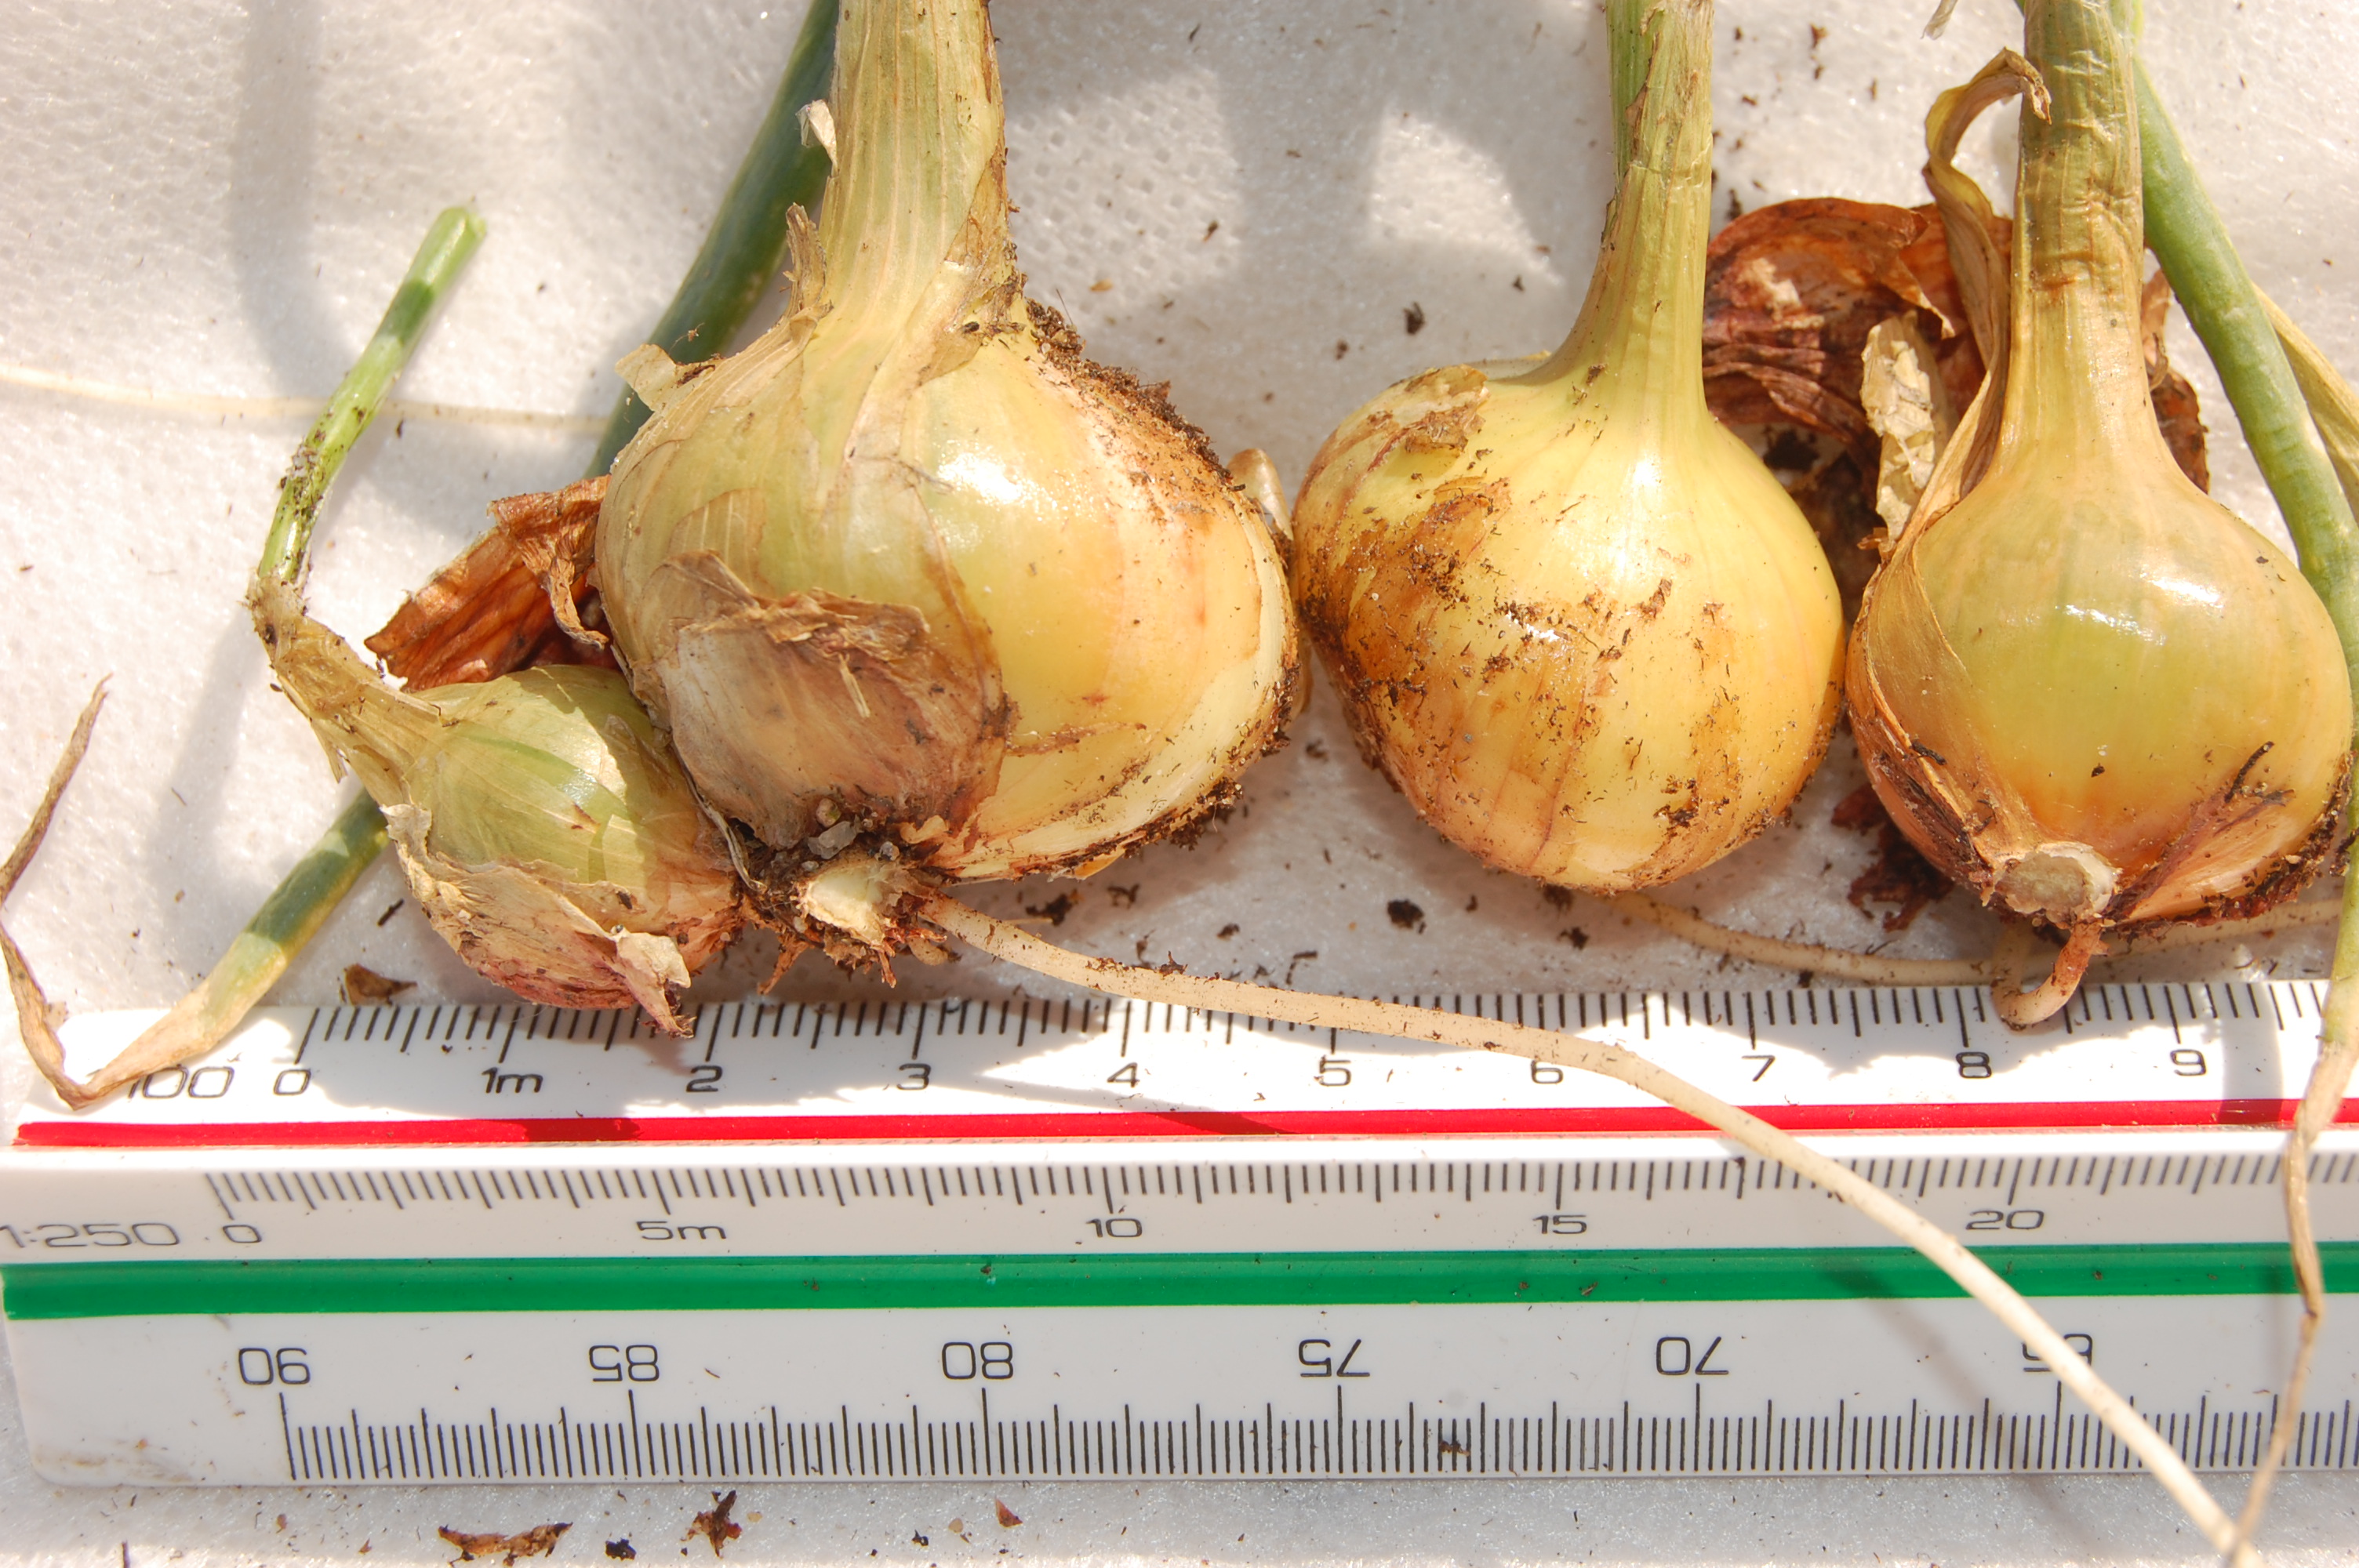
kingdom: Plantae
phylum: Tracheophyta
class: Liliopsida
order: Asparagales
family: Amaryllidaceae
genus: Allium
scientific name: Allium cepa
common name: Onion
